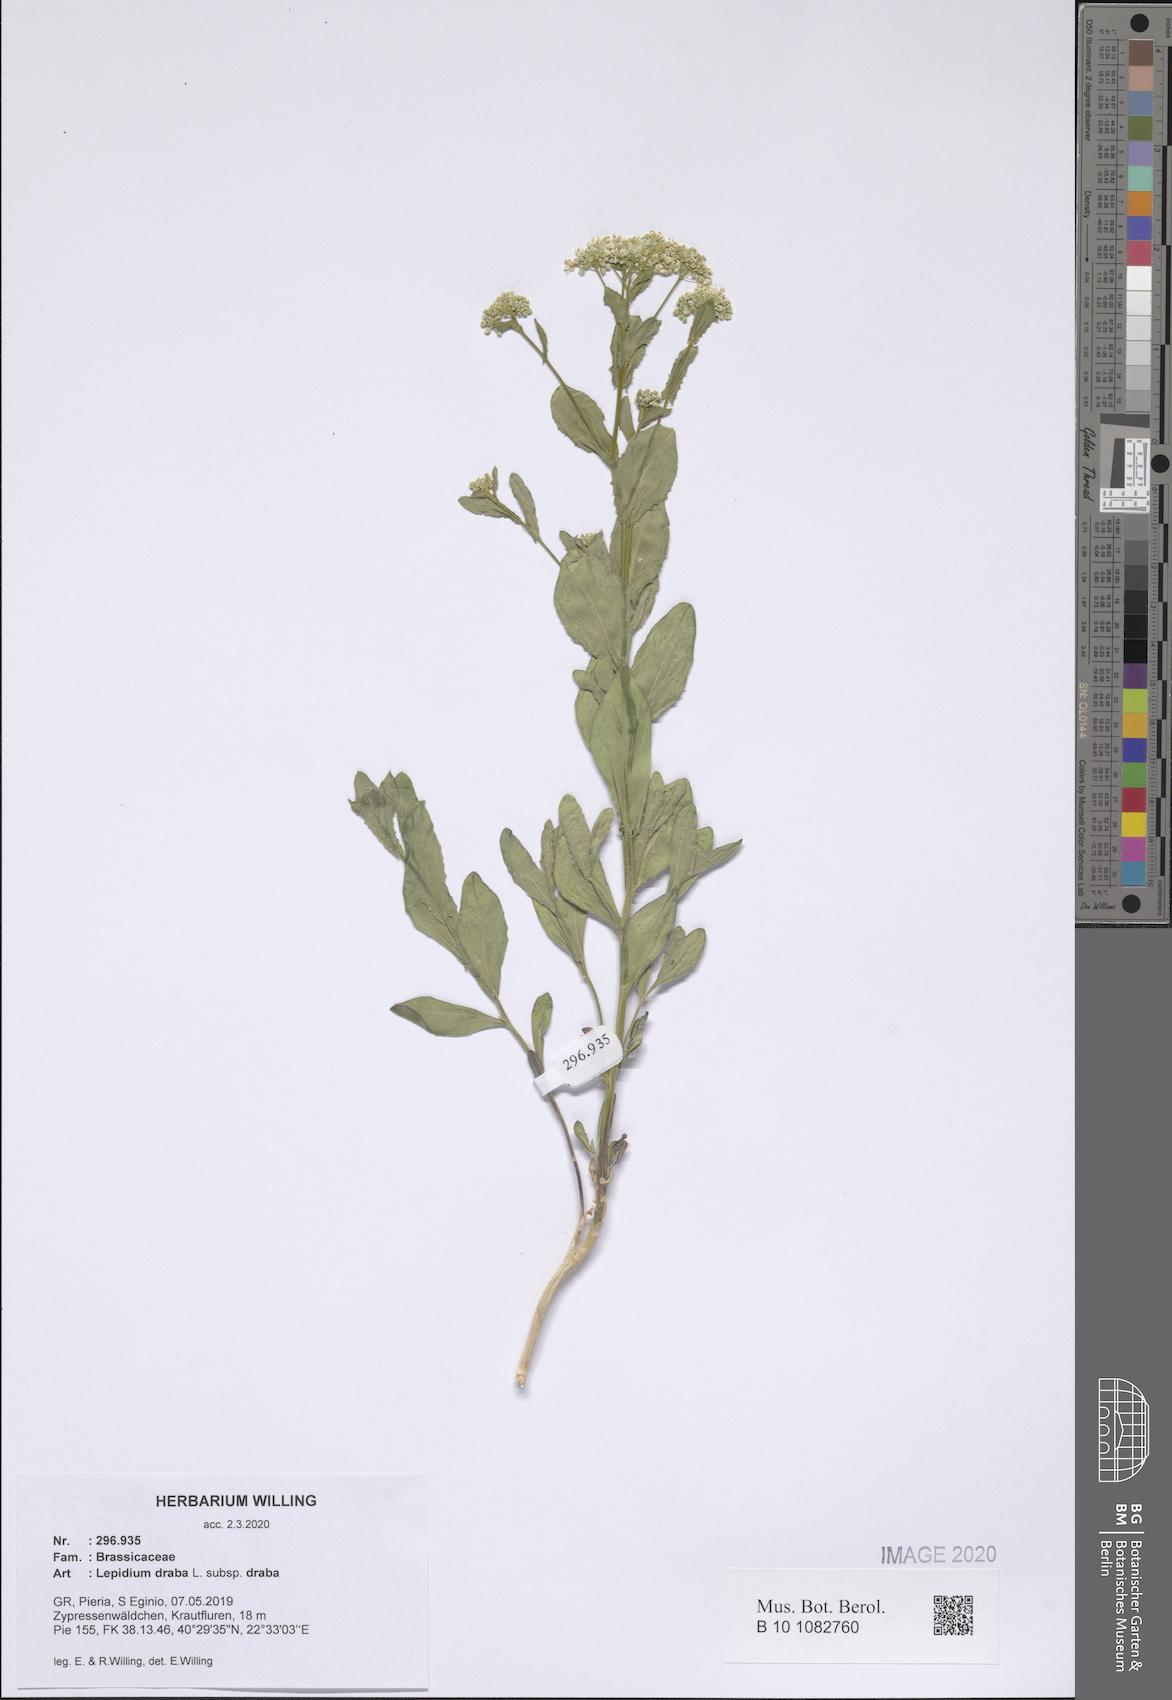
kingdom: Plantae
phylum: Tracheophyta
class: Magnoliopsida
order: Brassicales
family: Brassicaceae
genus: Lepidium
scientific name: Lepidium draba
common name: Hoary cress
